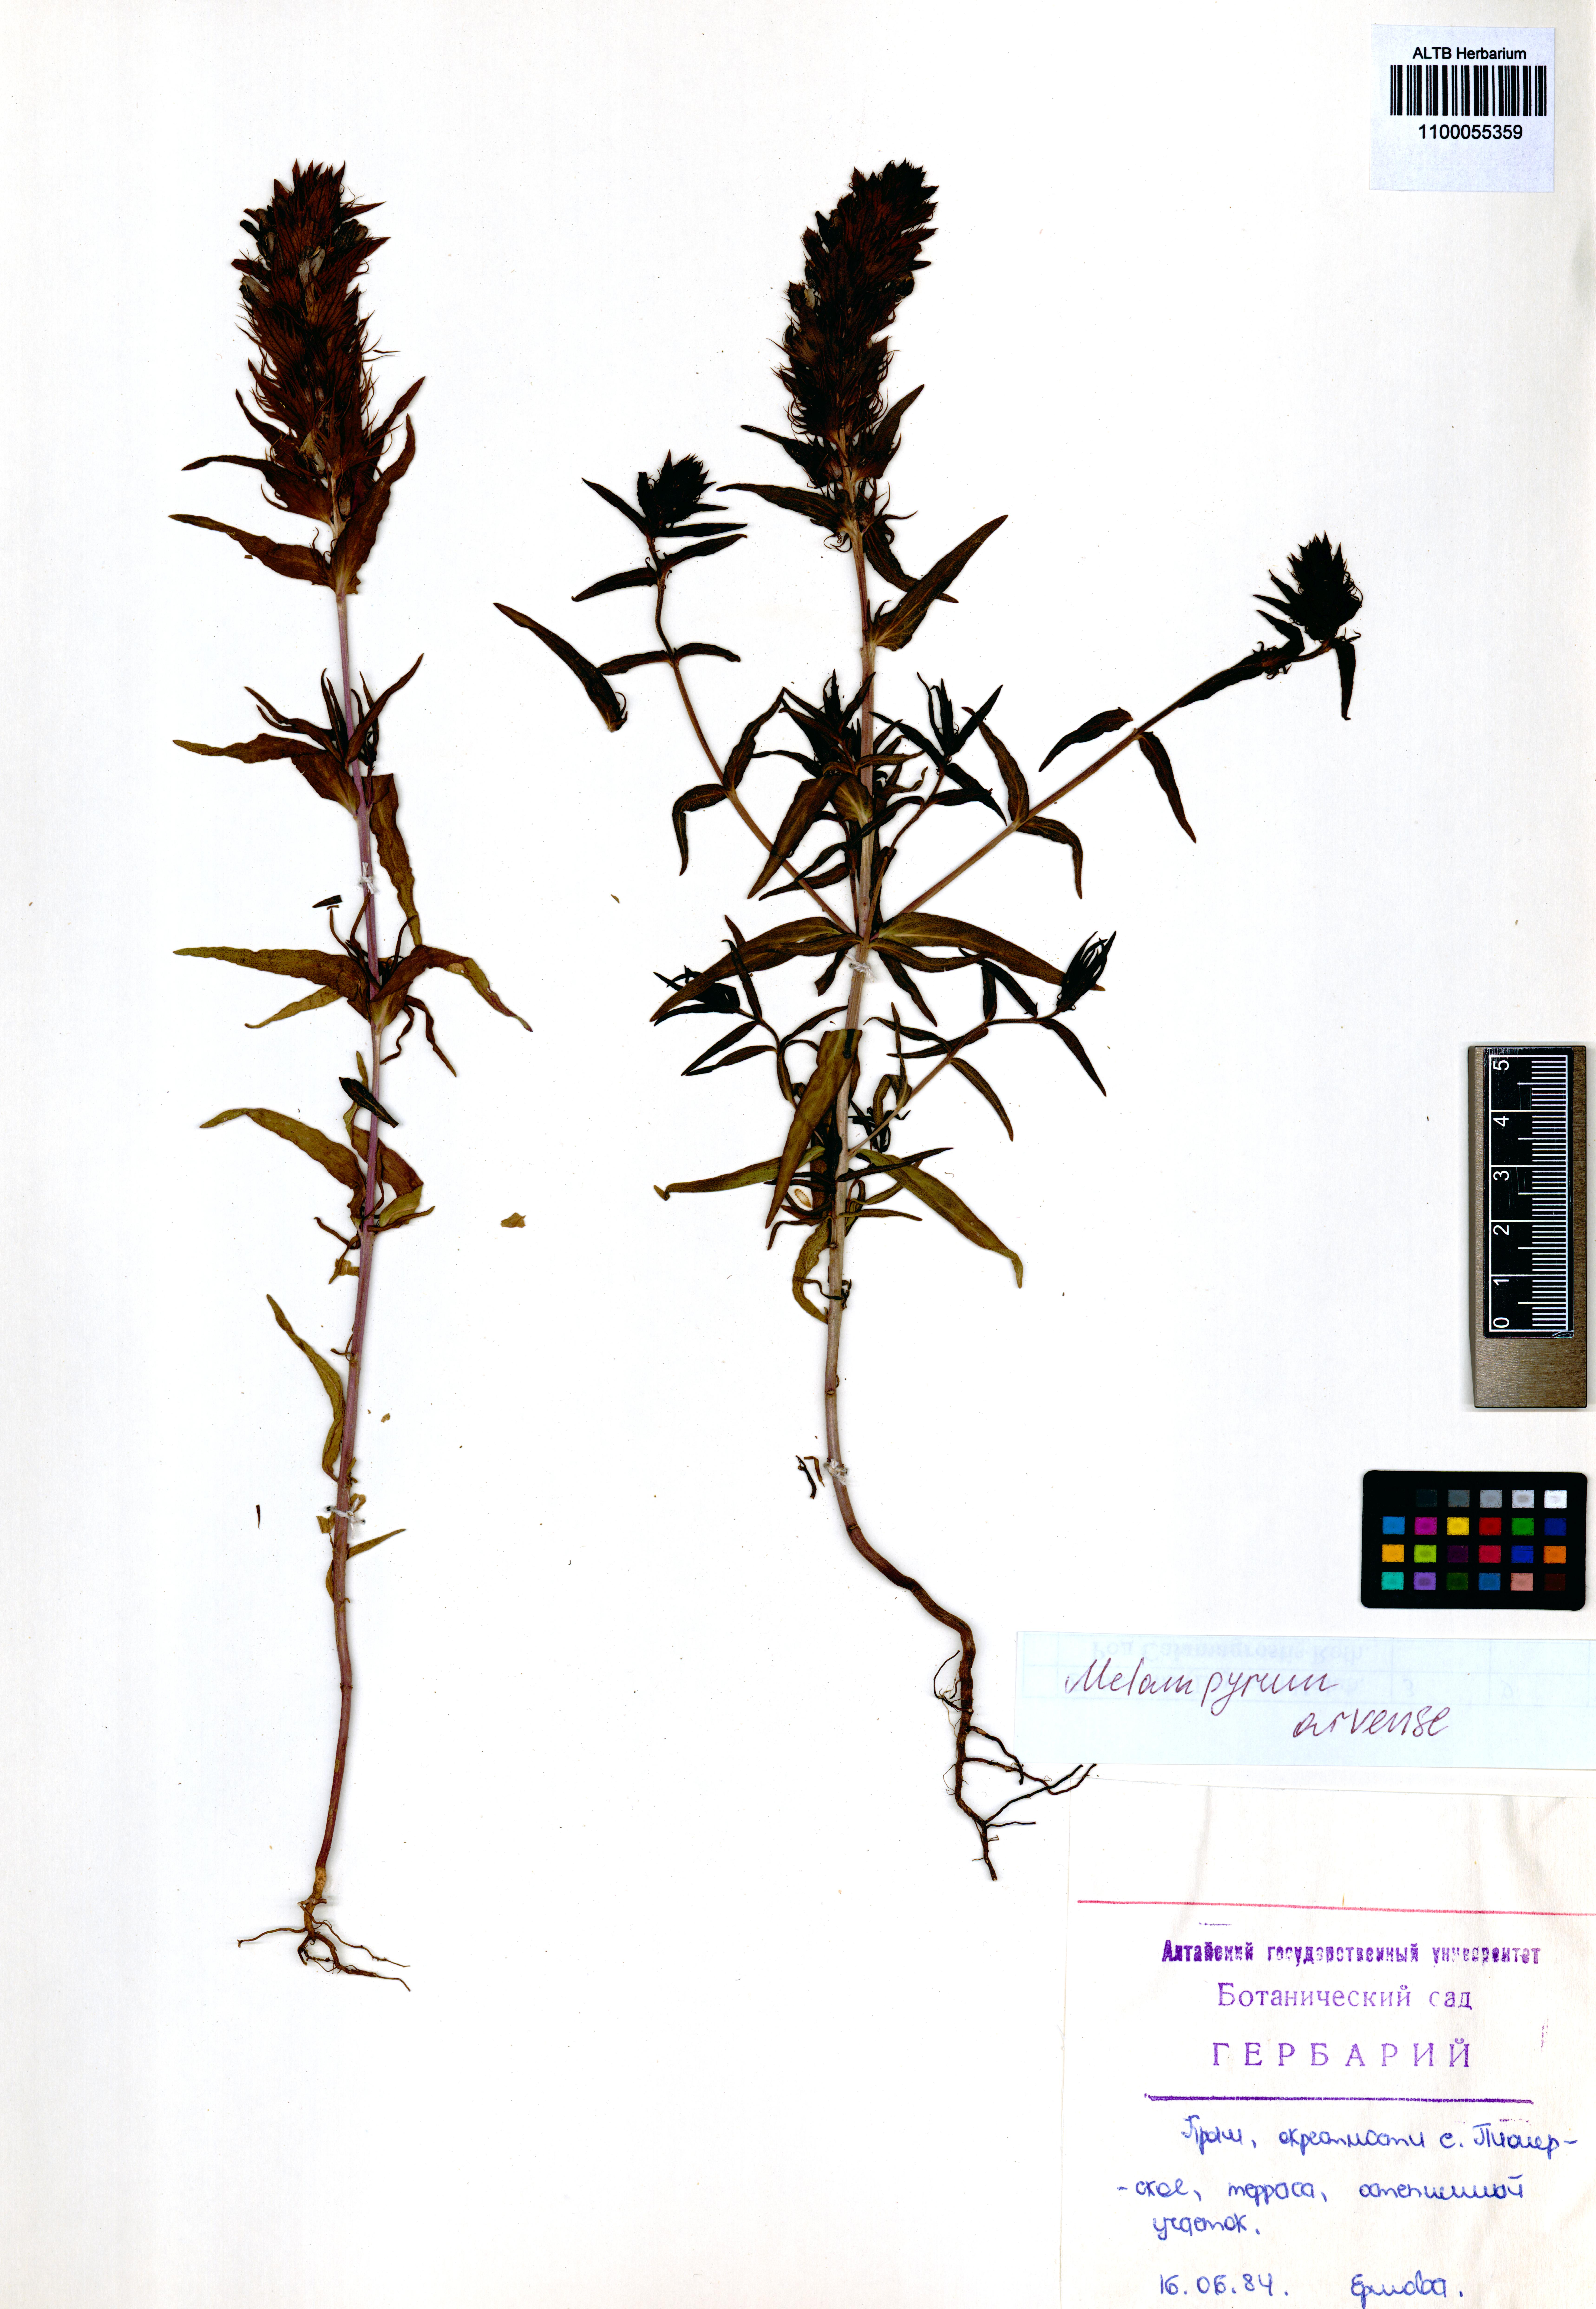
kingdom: Plantae
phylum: Tracheophyta
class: Magnoliopsida
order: Lamiales
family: Orobanchaceae
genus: Melampyrum
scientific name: Melampyrum arvense
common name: Field cow-wheat
